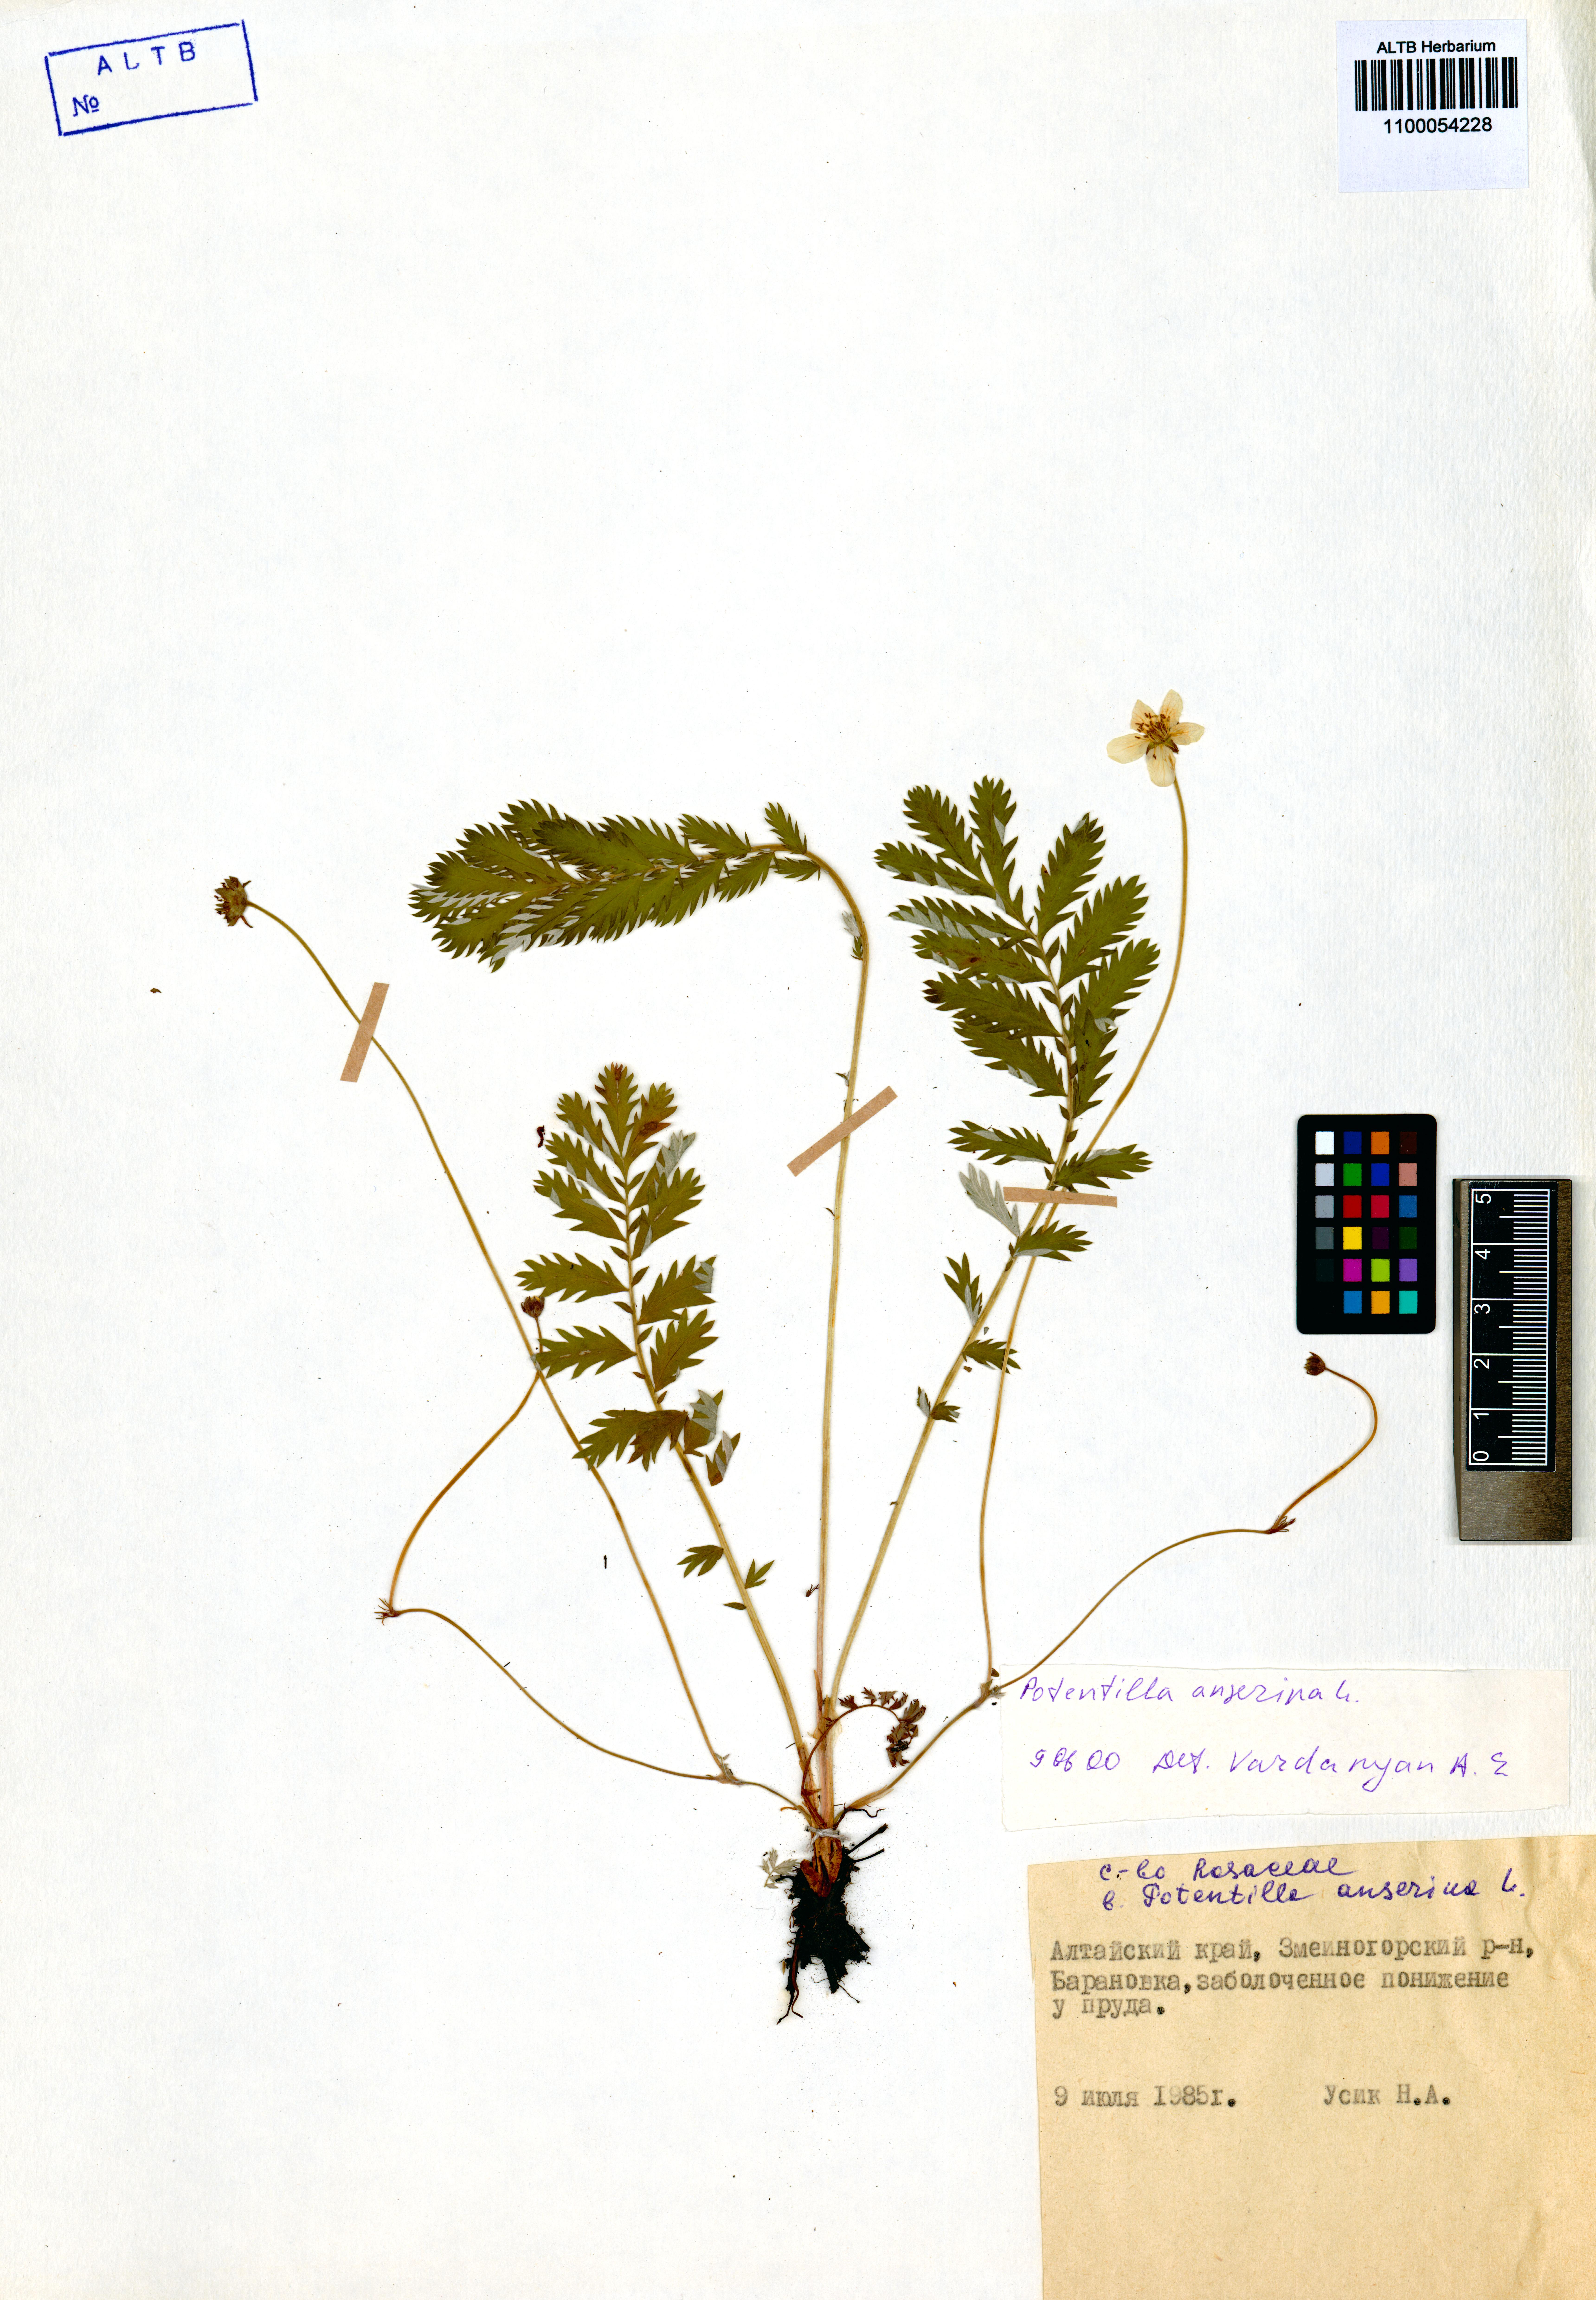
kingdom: Plantae
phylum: Tracheophyta
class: Magnoliopsida
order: Rosales
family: Rosaceae
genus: Argentina
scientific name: Argentina anserina
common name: Common silverweed
